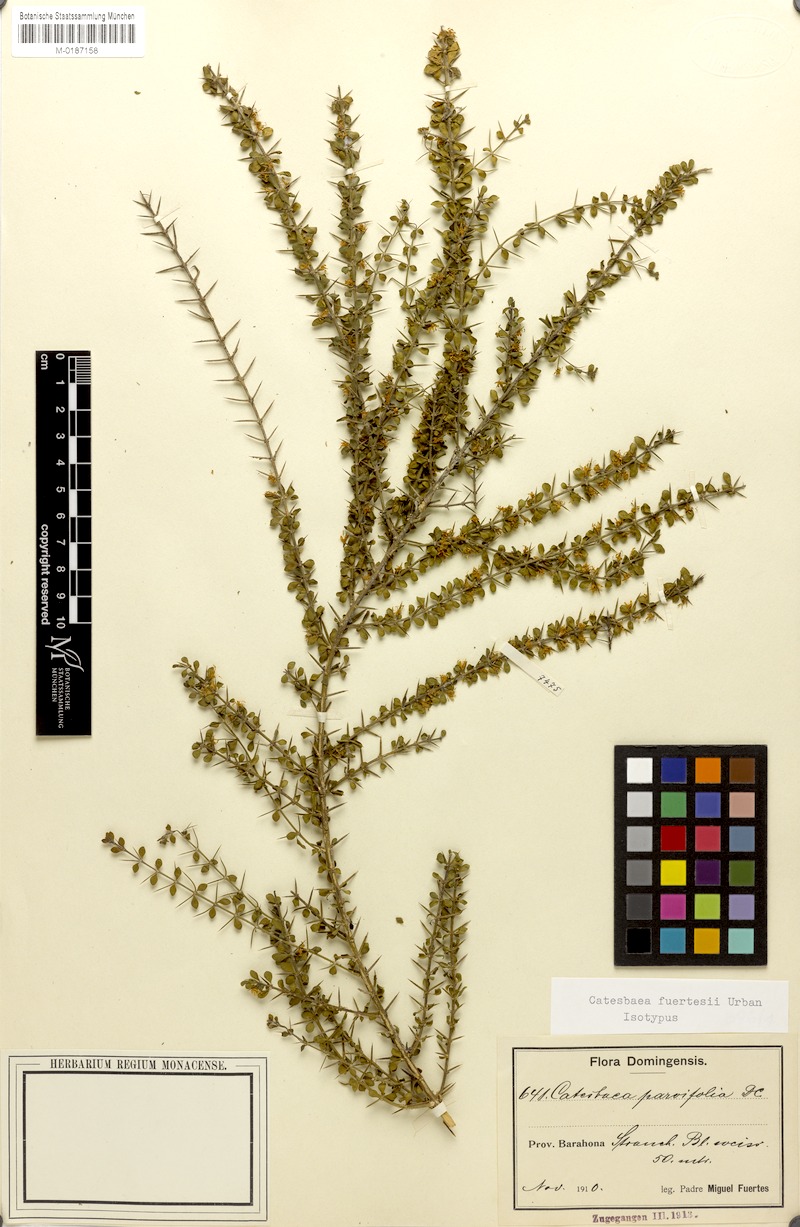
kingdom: Plantae
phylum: Tracheophyta
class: Magnoliopsida
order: Gentianales
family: Rubiaceae
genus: Catesbaea
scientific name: Catesbaea fuertesii
